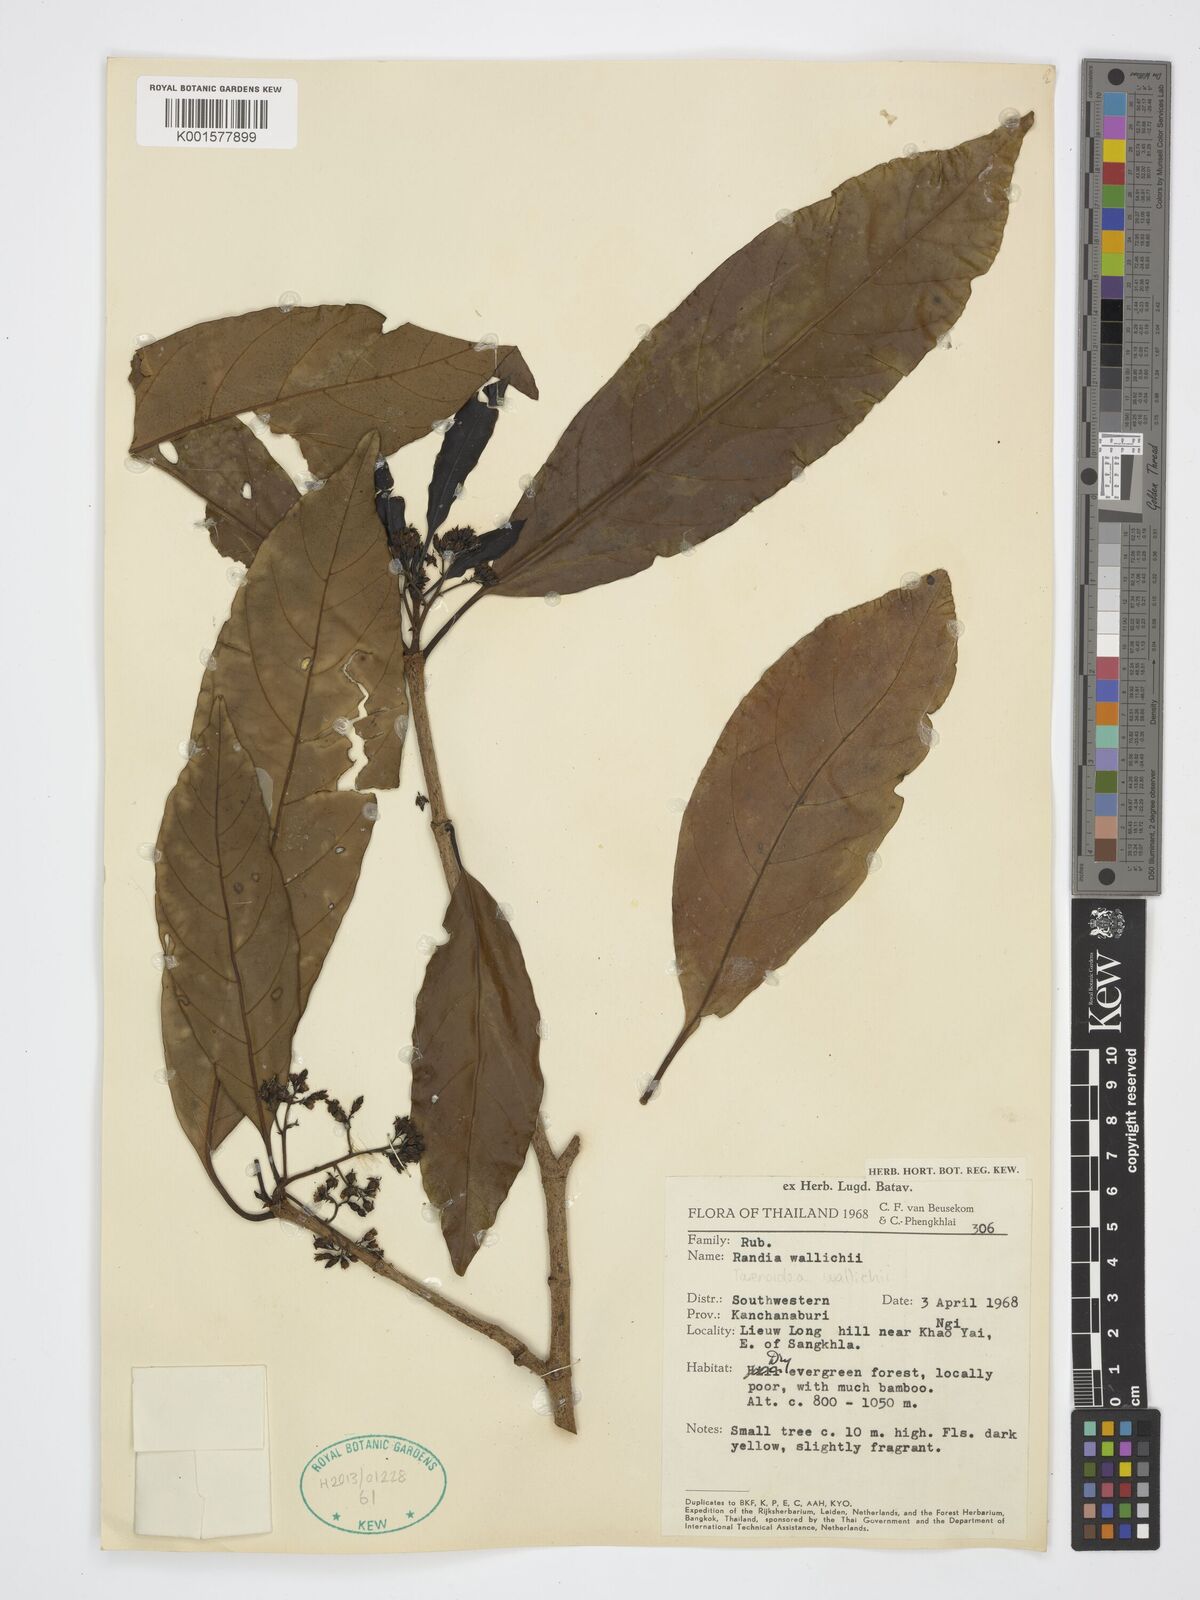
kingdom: Plantae
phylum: Tracheophyta
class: Magnoliopsida
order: Gentianales
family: Rubiaceae
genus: Tarennoidea
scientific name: Tarennoidea wallichii
